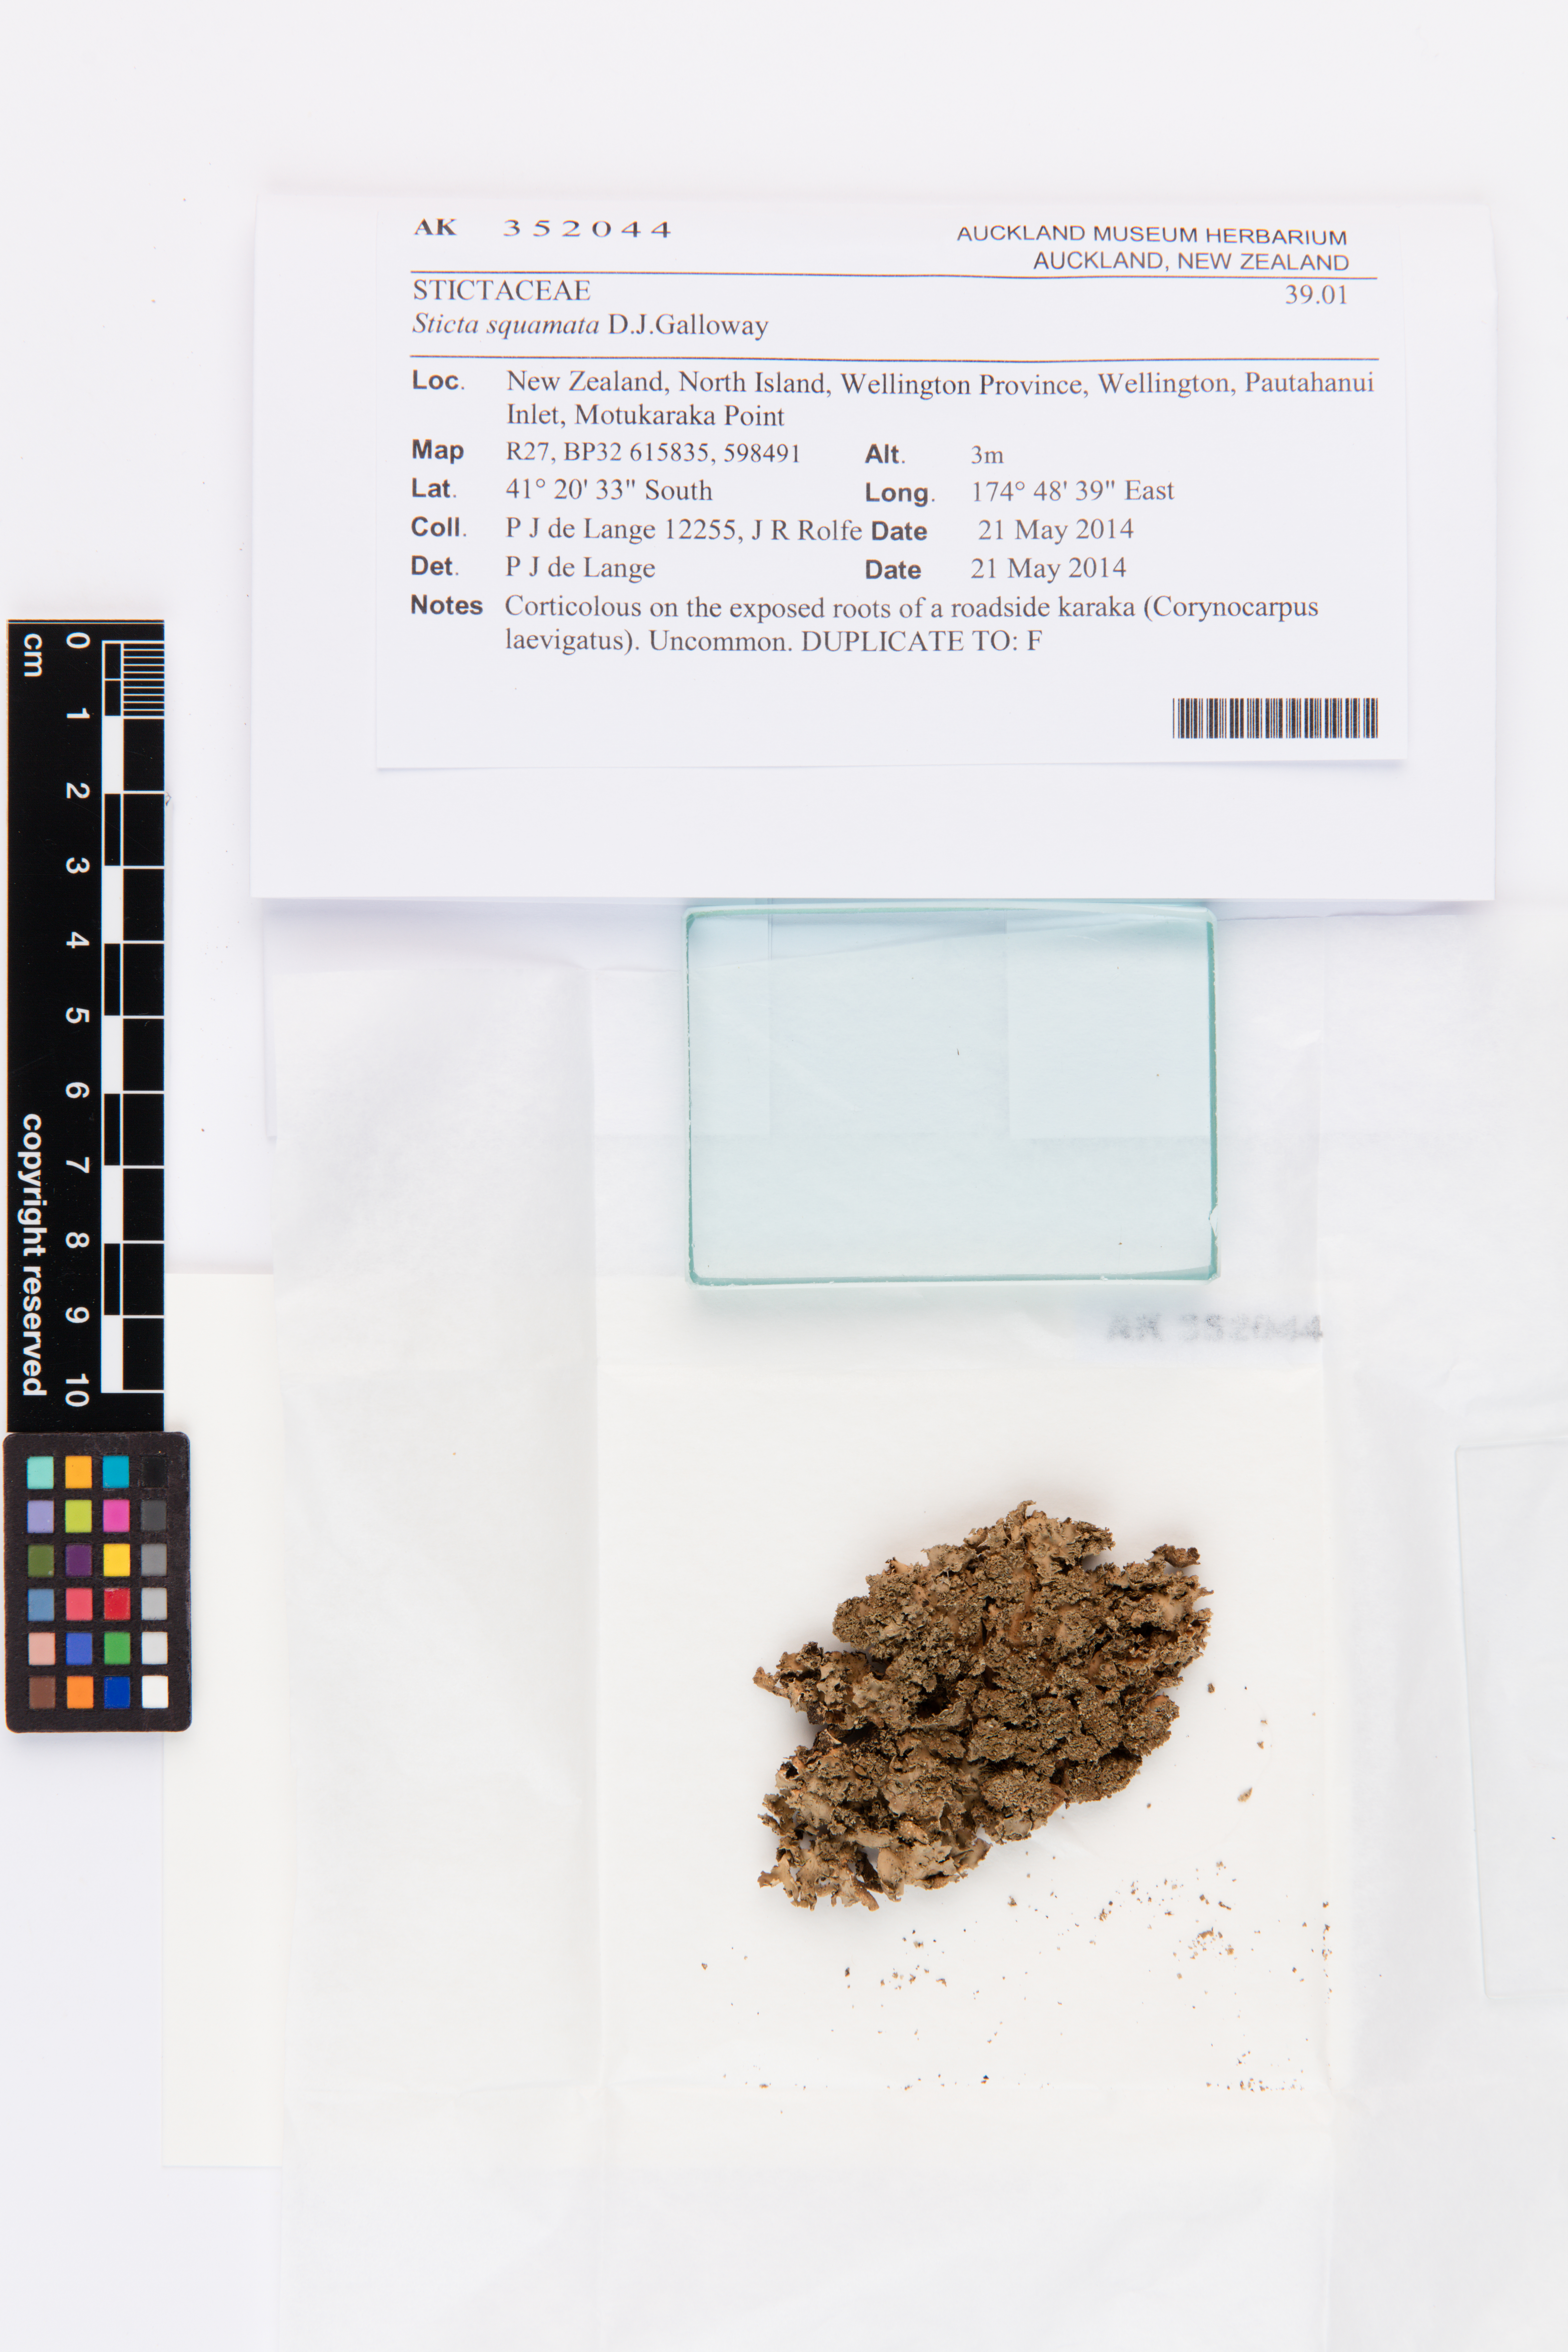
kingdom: Fungi
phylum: Ascomycota
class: Lecanoromycetes
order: Peltigerales
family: Lobariaceae
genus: Sticta
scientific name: Sticta squamata
